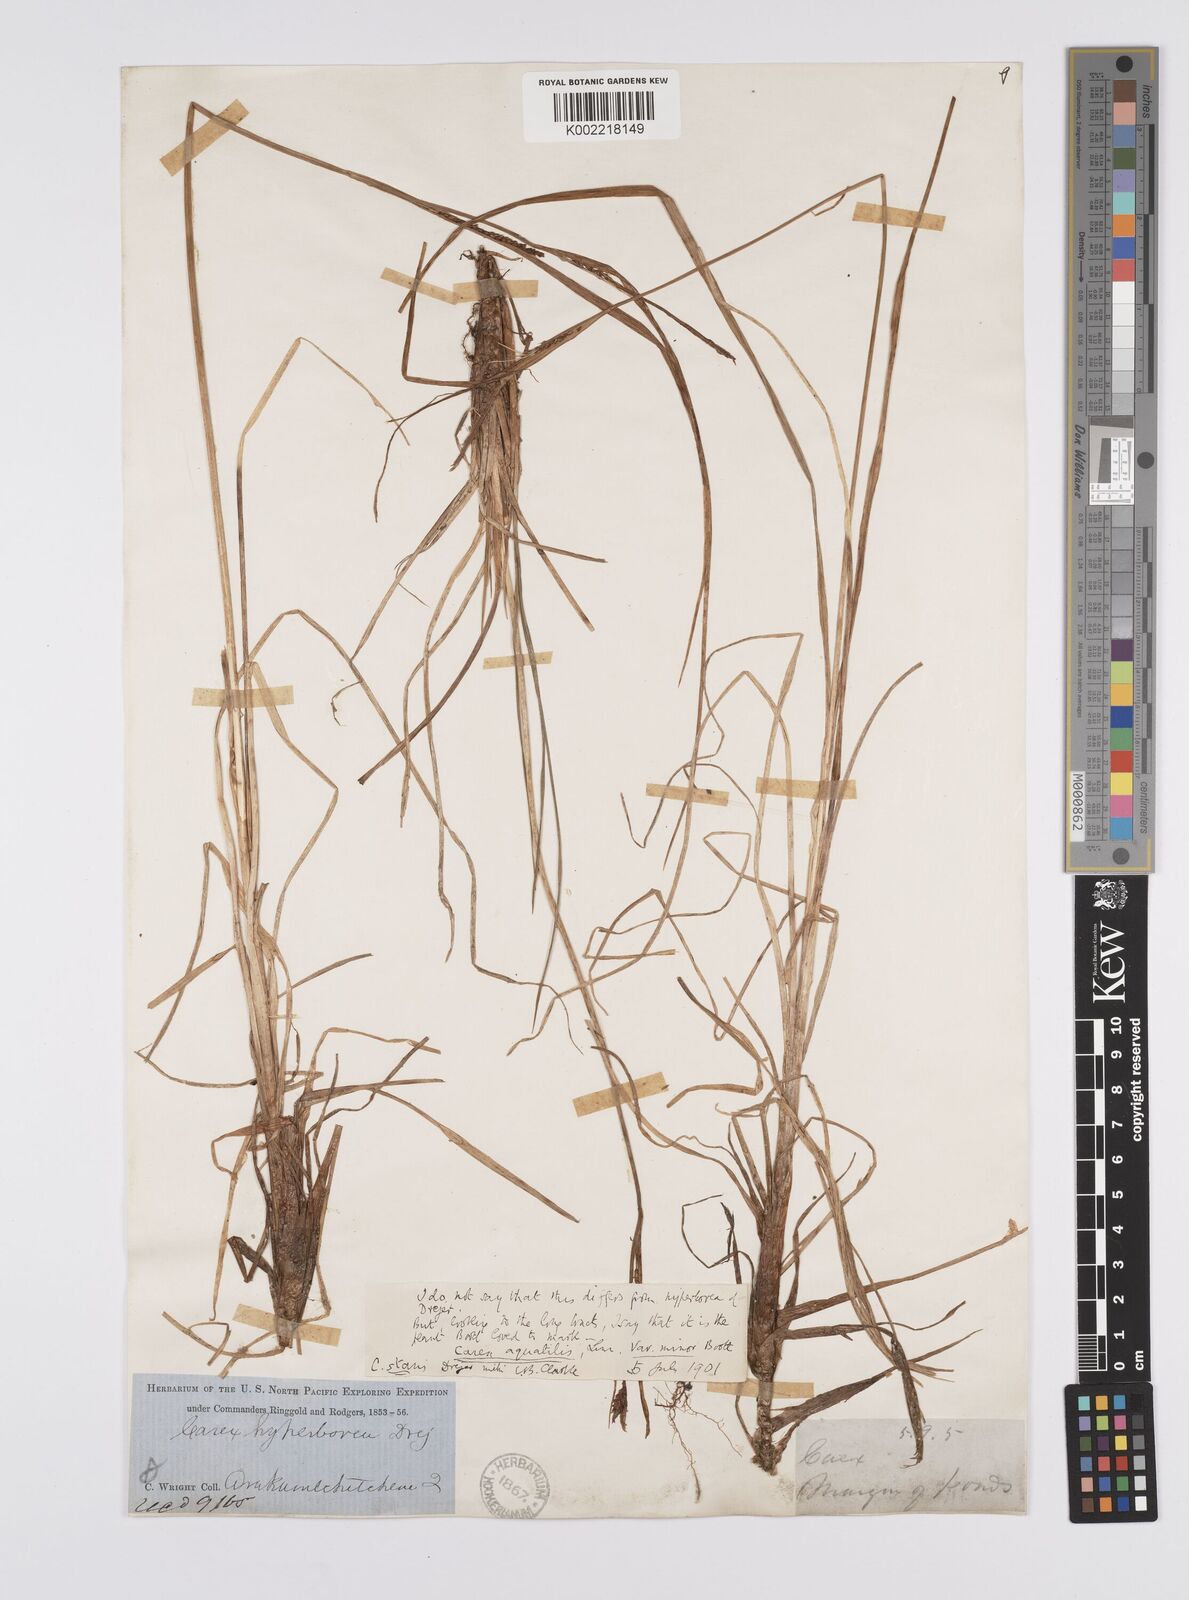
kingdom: Plantae
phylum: Tracheophyta
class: Liliopsida
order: Poales
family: Cyperaceae
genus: Carex
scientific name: Carex microsaccus
